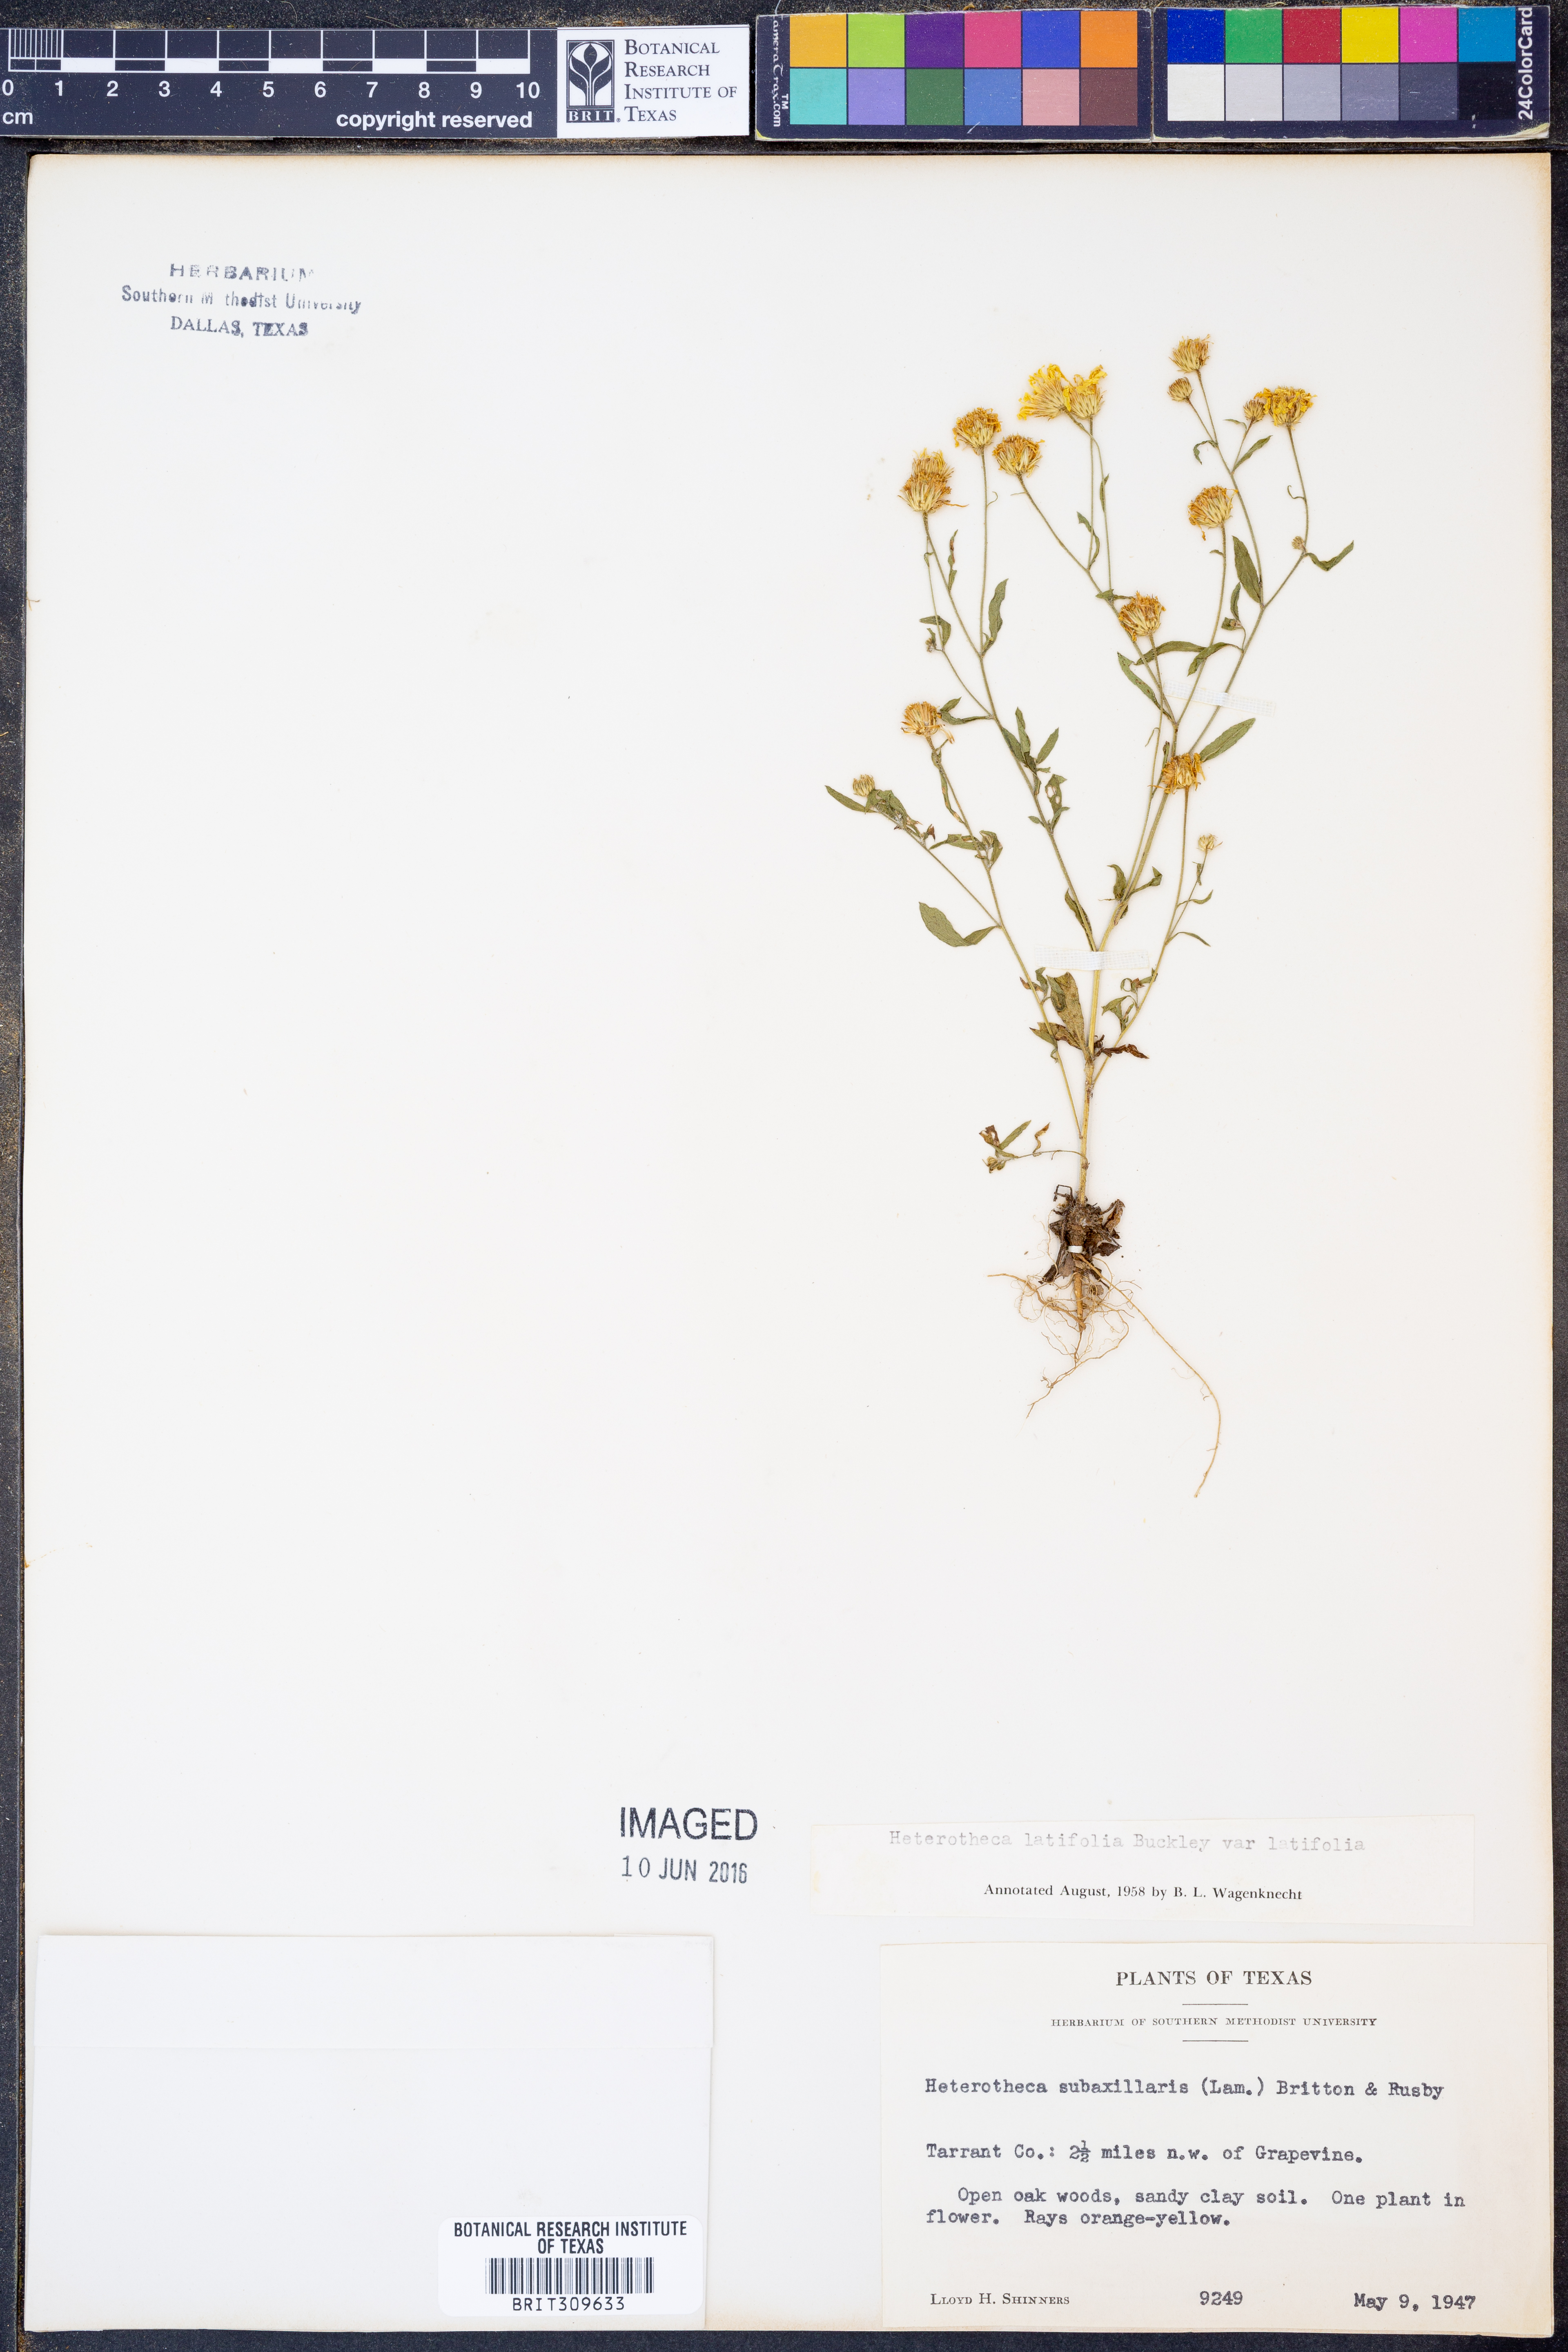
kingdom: Plantae
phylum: Tracheophyta
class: Magnoliopsida
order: Asterales
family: Asteraceae
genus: Heterotheca
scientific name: Heterotheca subaxillaris
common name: Camphorweed
